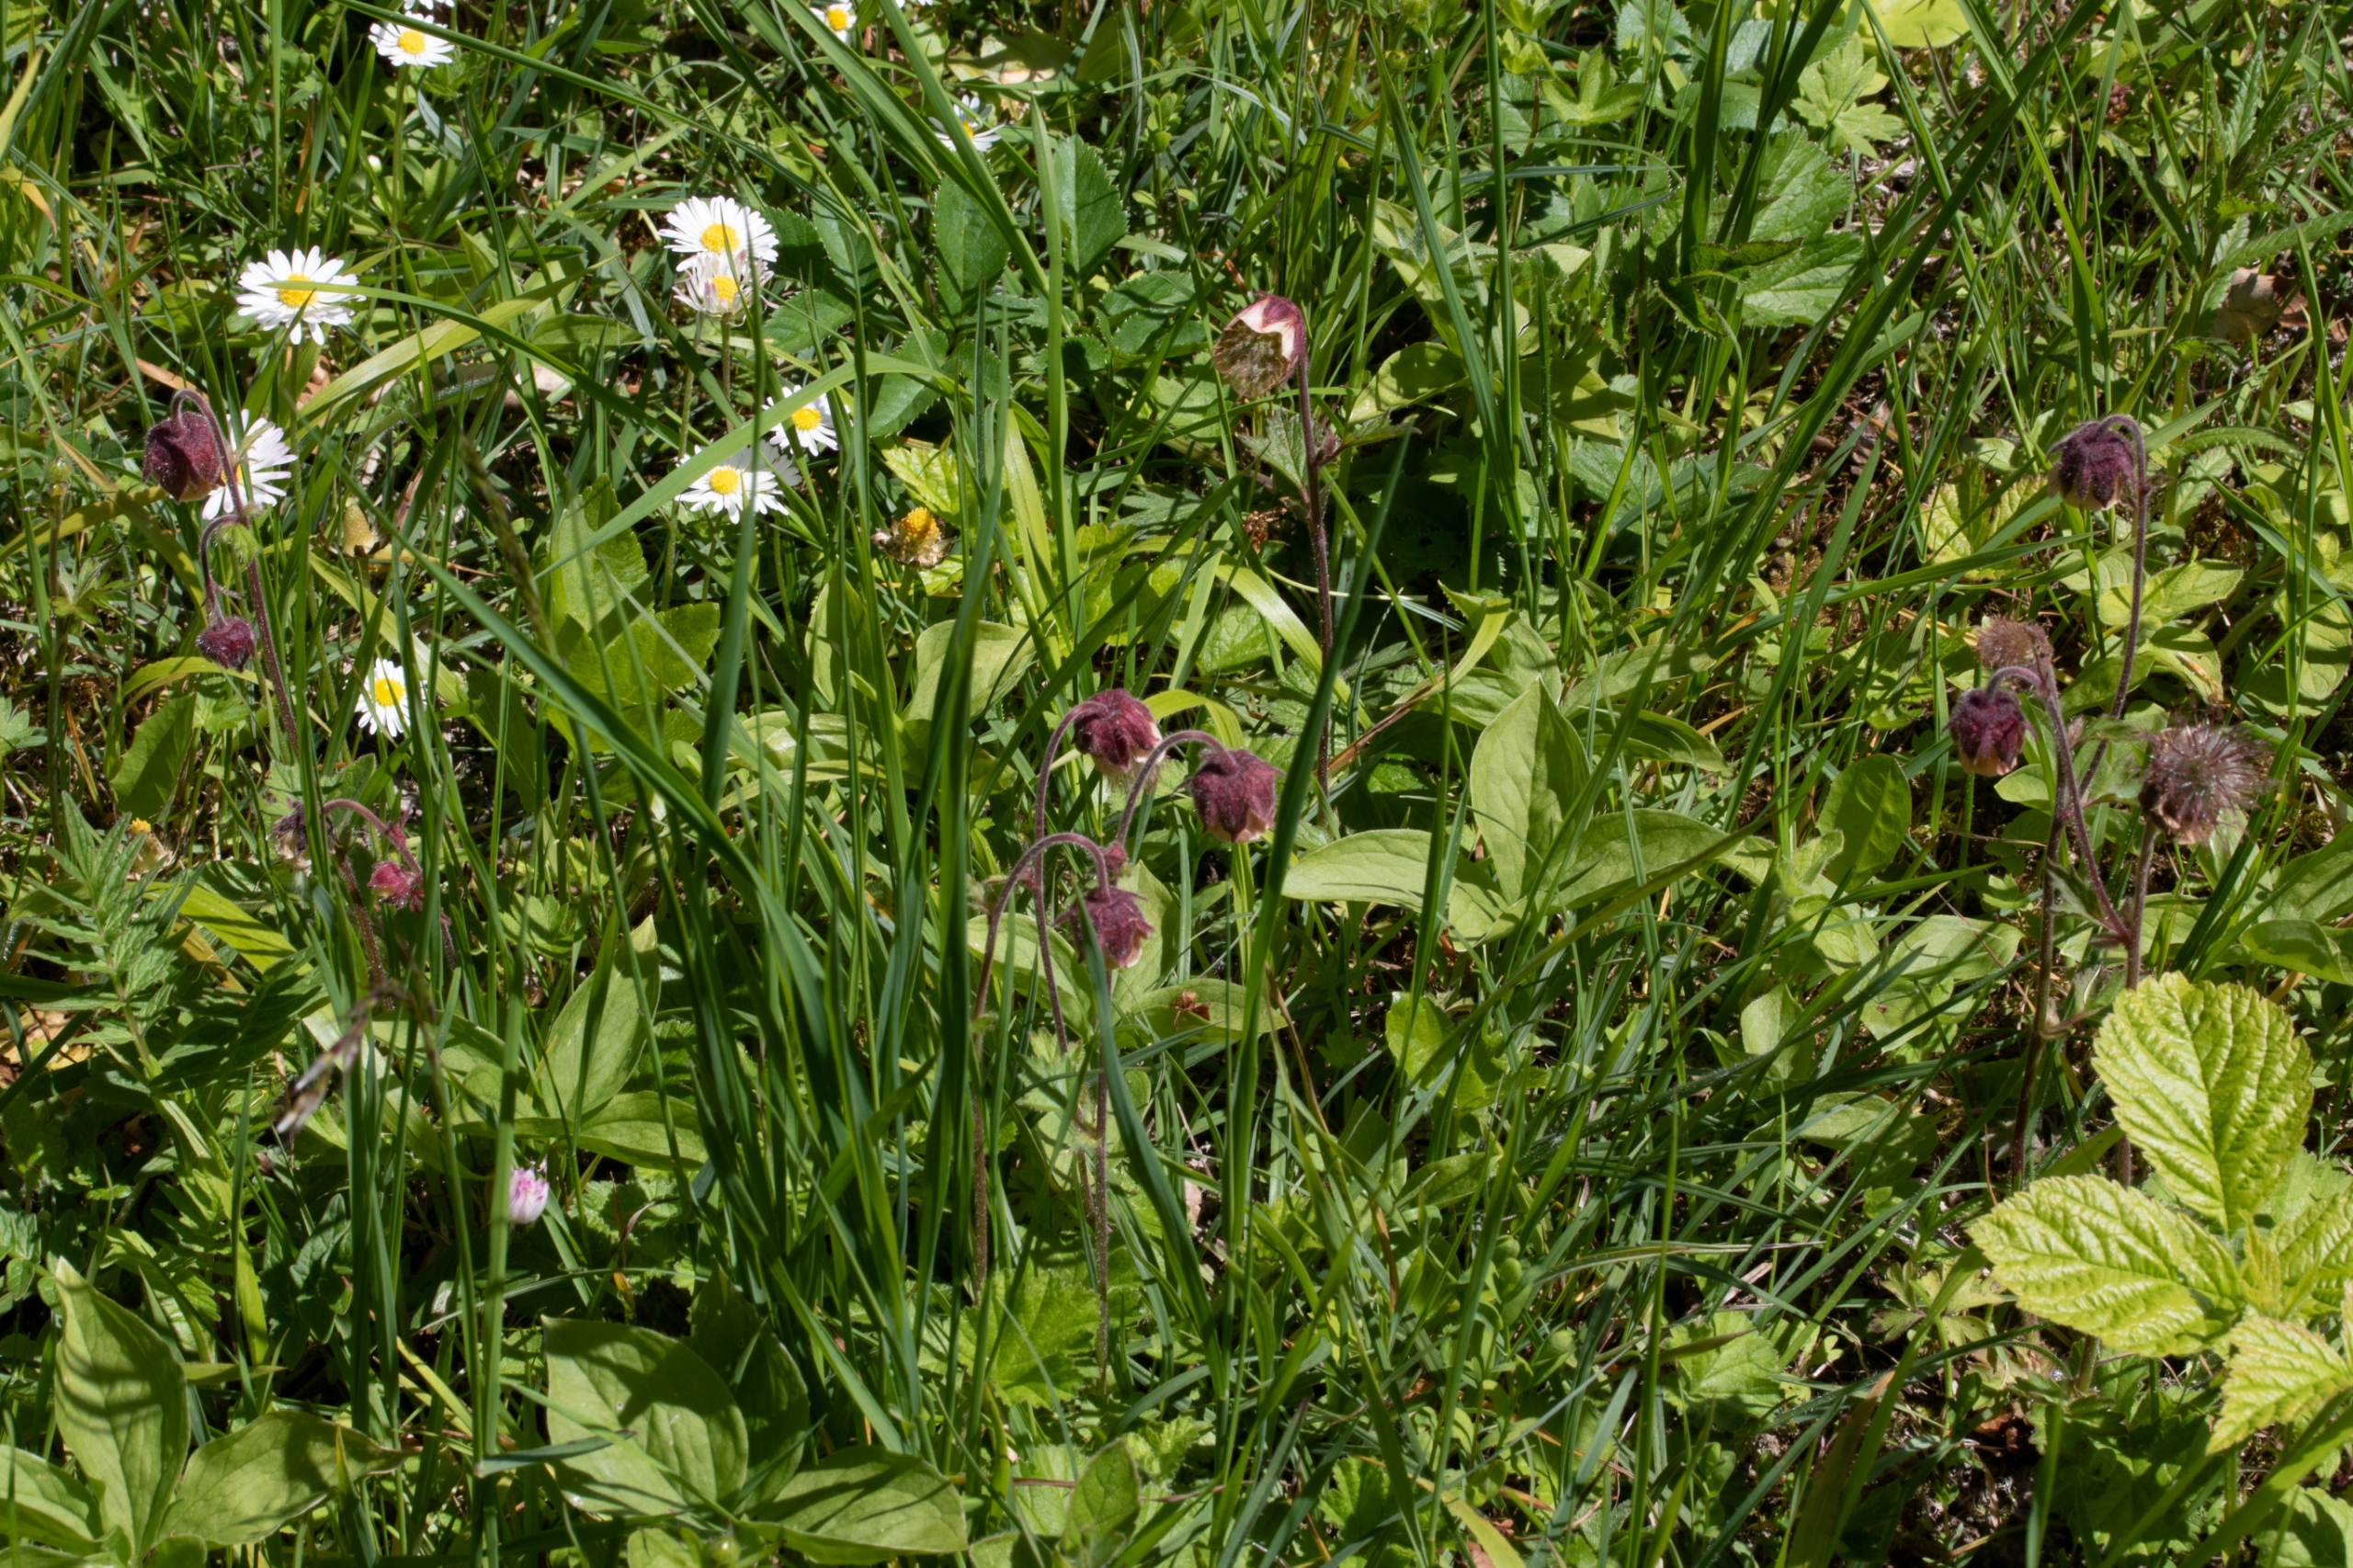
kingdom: Plantae
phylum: Tracheophyta
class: Magnoliopsida
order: Rosales
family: Rosaceae
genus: Geum
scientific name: Geum rivale
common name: Eng-nellikerod
